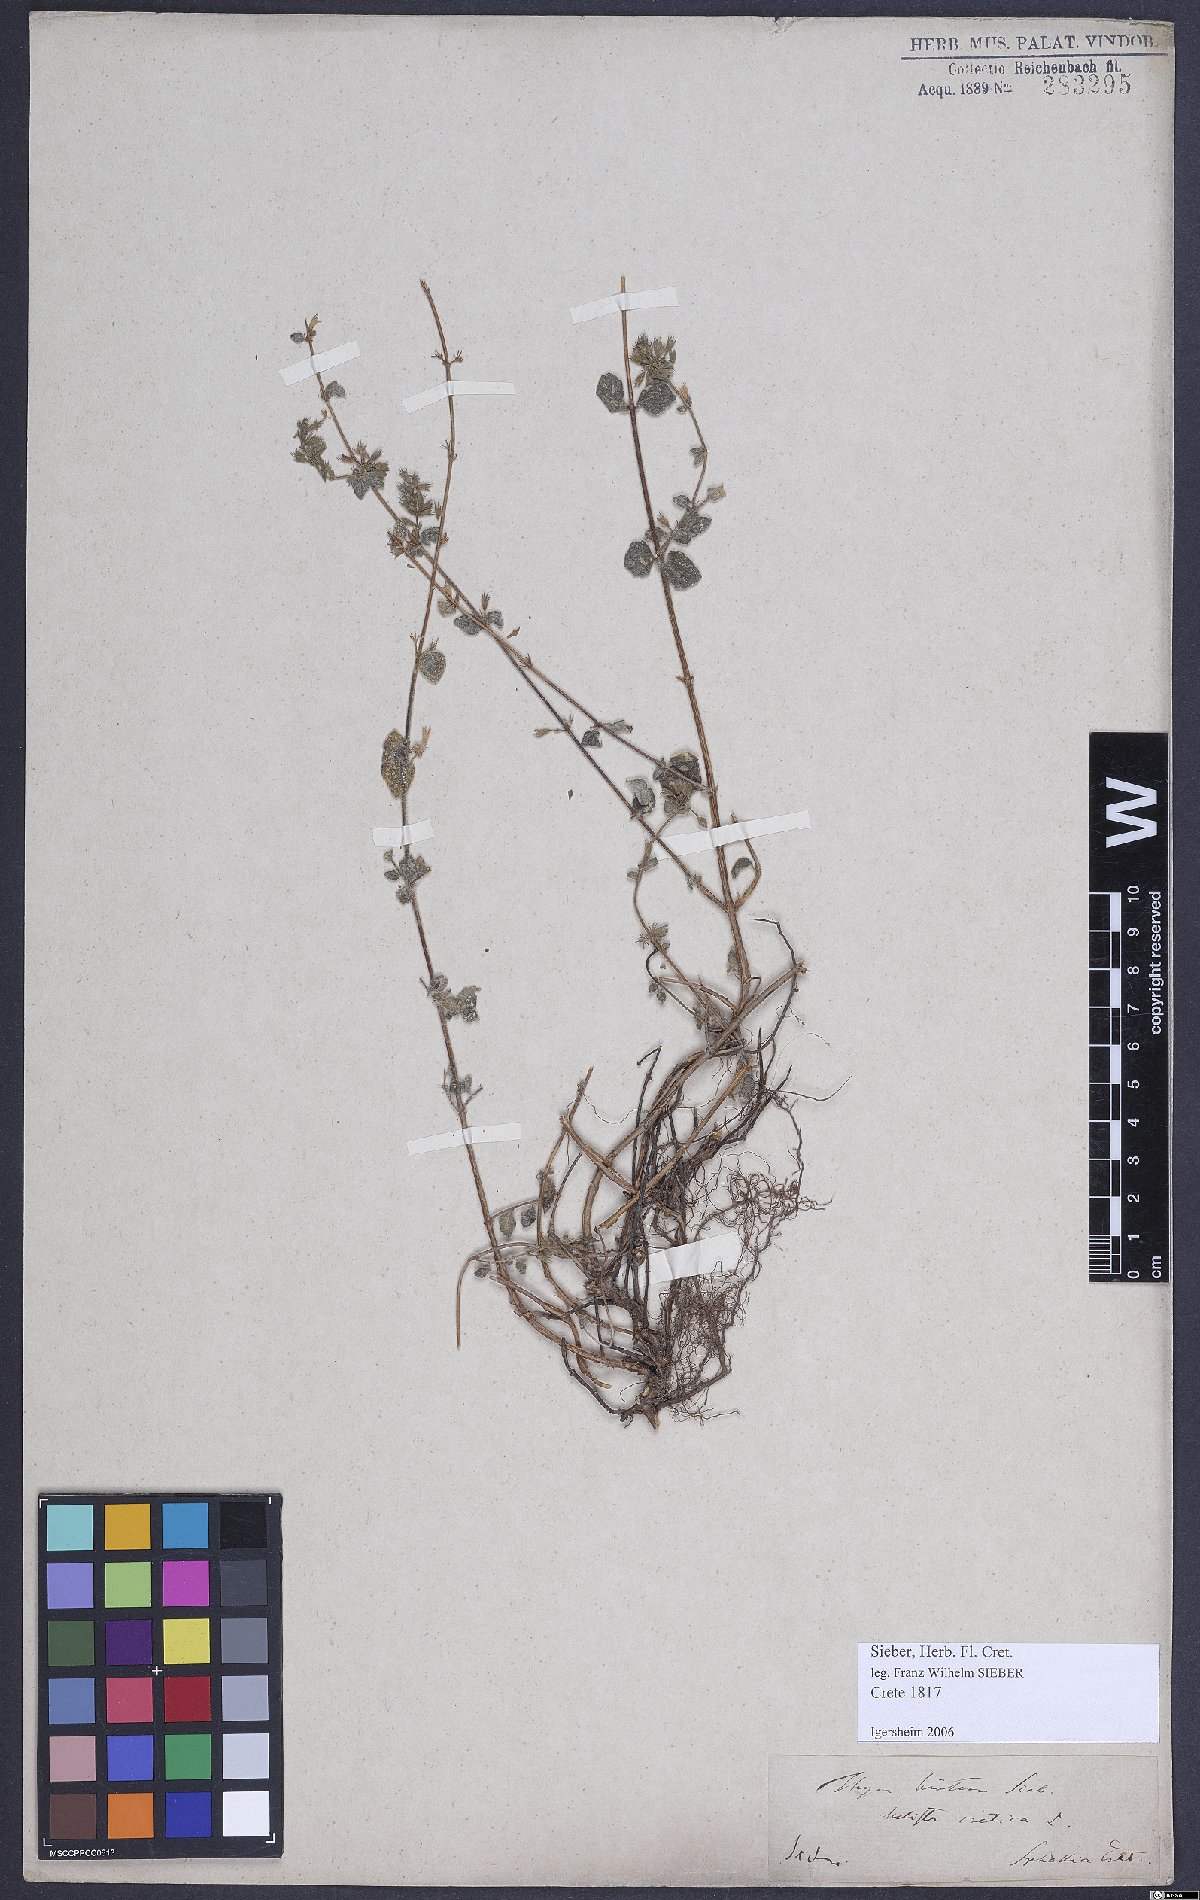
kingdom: Plantae
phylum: Tracheophyta
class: Magnoliopsida
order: Lamiales
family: Lamiaceae
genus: Clinopodium
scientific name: Clinopodium creticum
